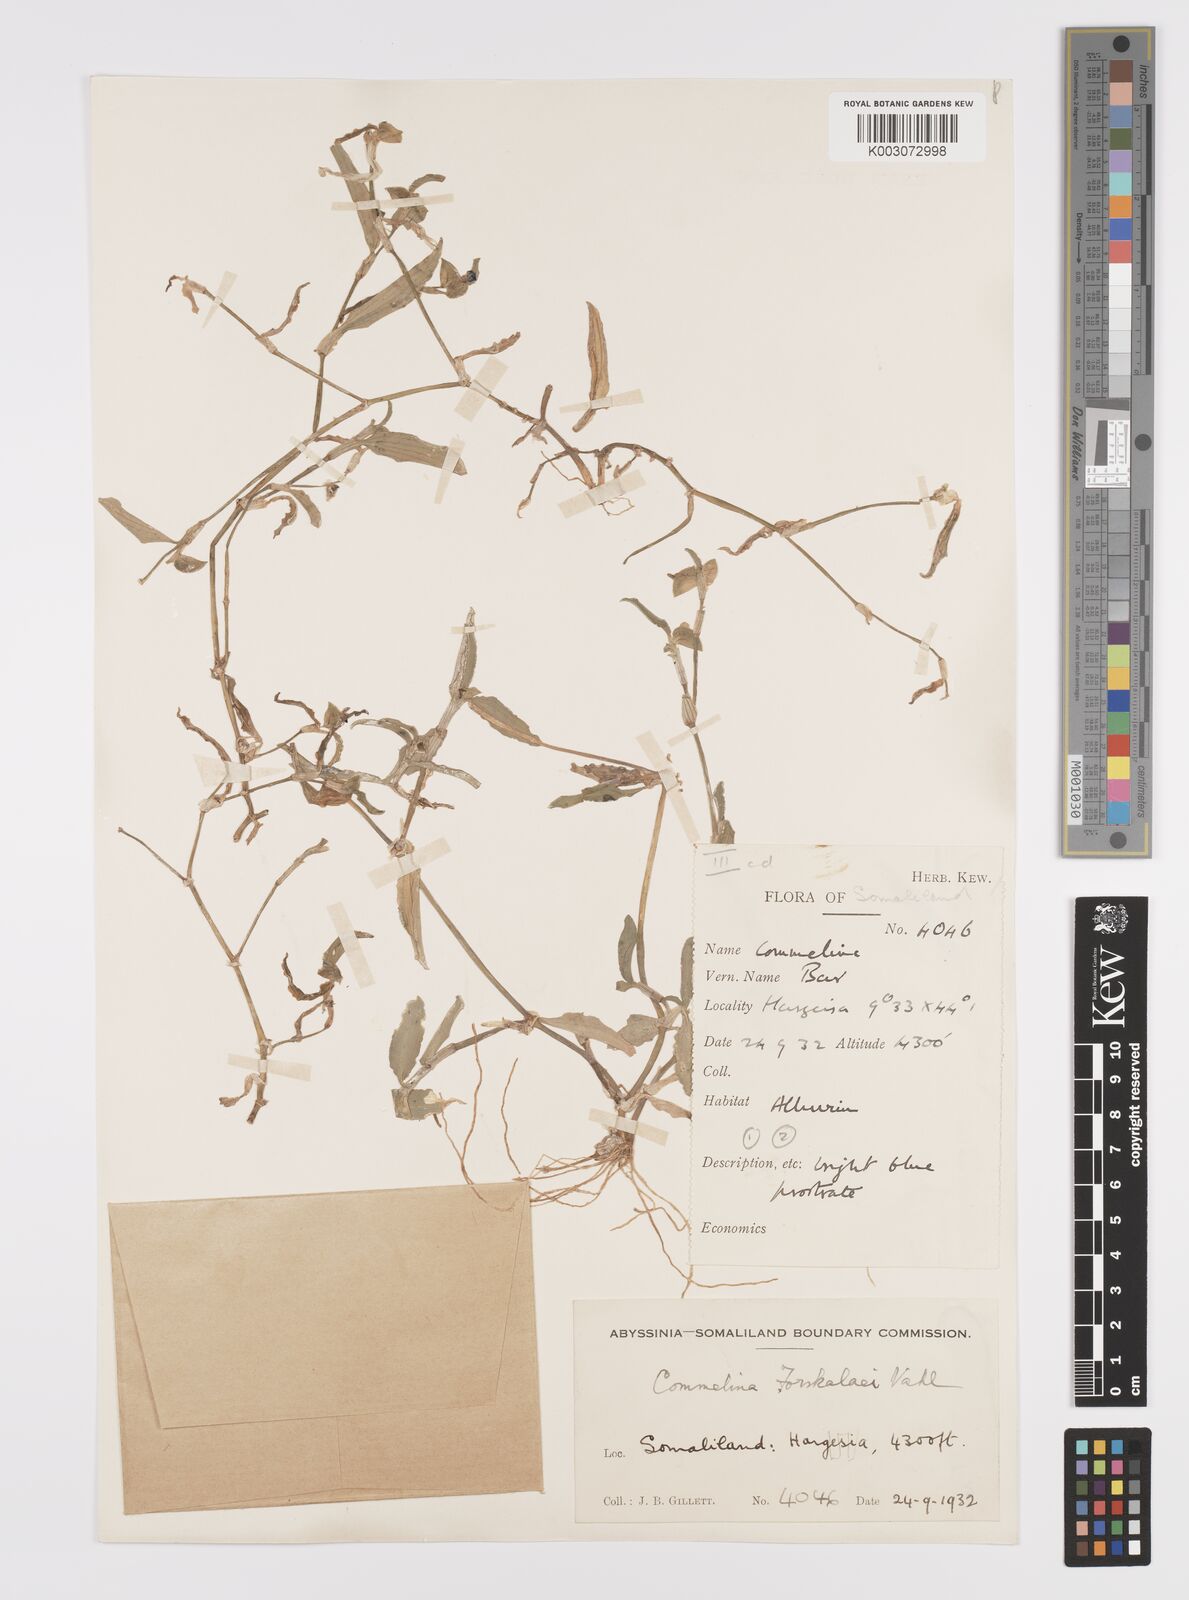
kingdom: Plantae
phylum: Tracheophyta
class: Liliopsida
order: Commelinales
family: Commelinaceae
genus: Commelina
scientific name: Commelina forskaolii
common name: Rat's ear
